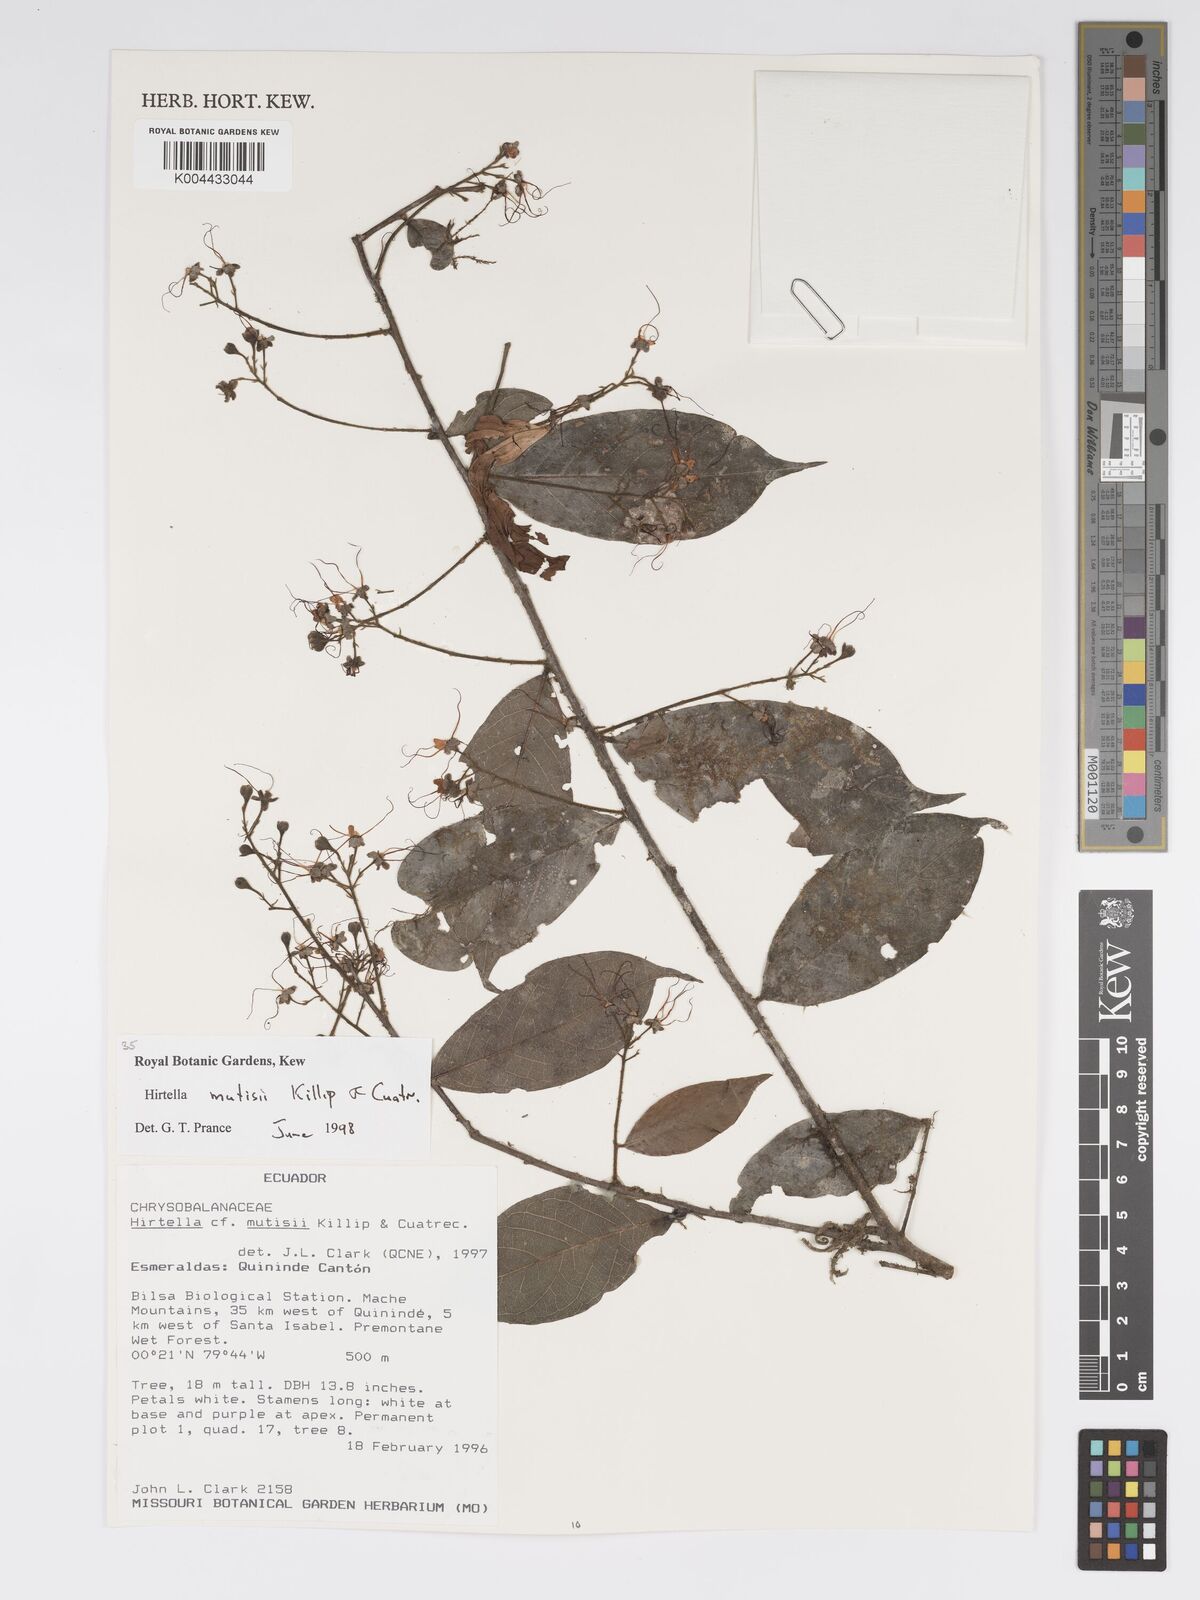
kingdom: Plantae
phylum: Tracheophyta
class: Magnoliopsida
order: Malpighiales
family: Chrysobalanaceae
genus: Hirtella
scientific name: Hirtella mutisii
